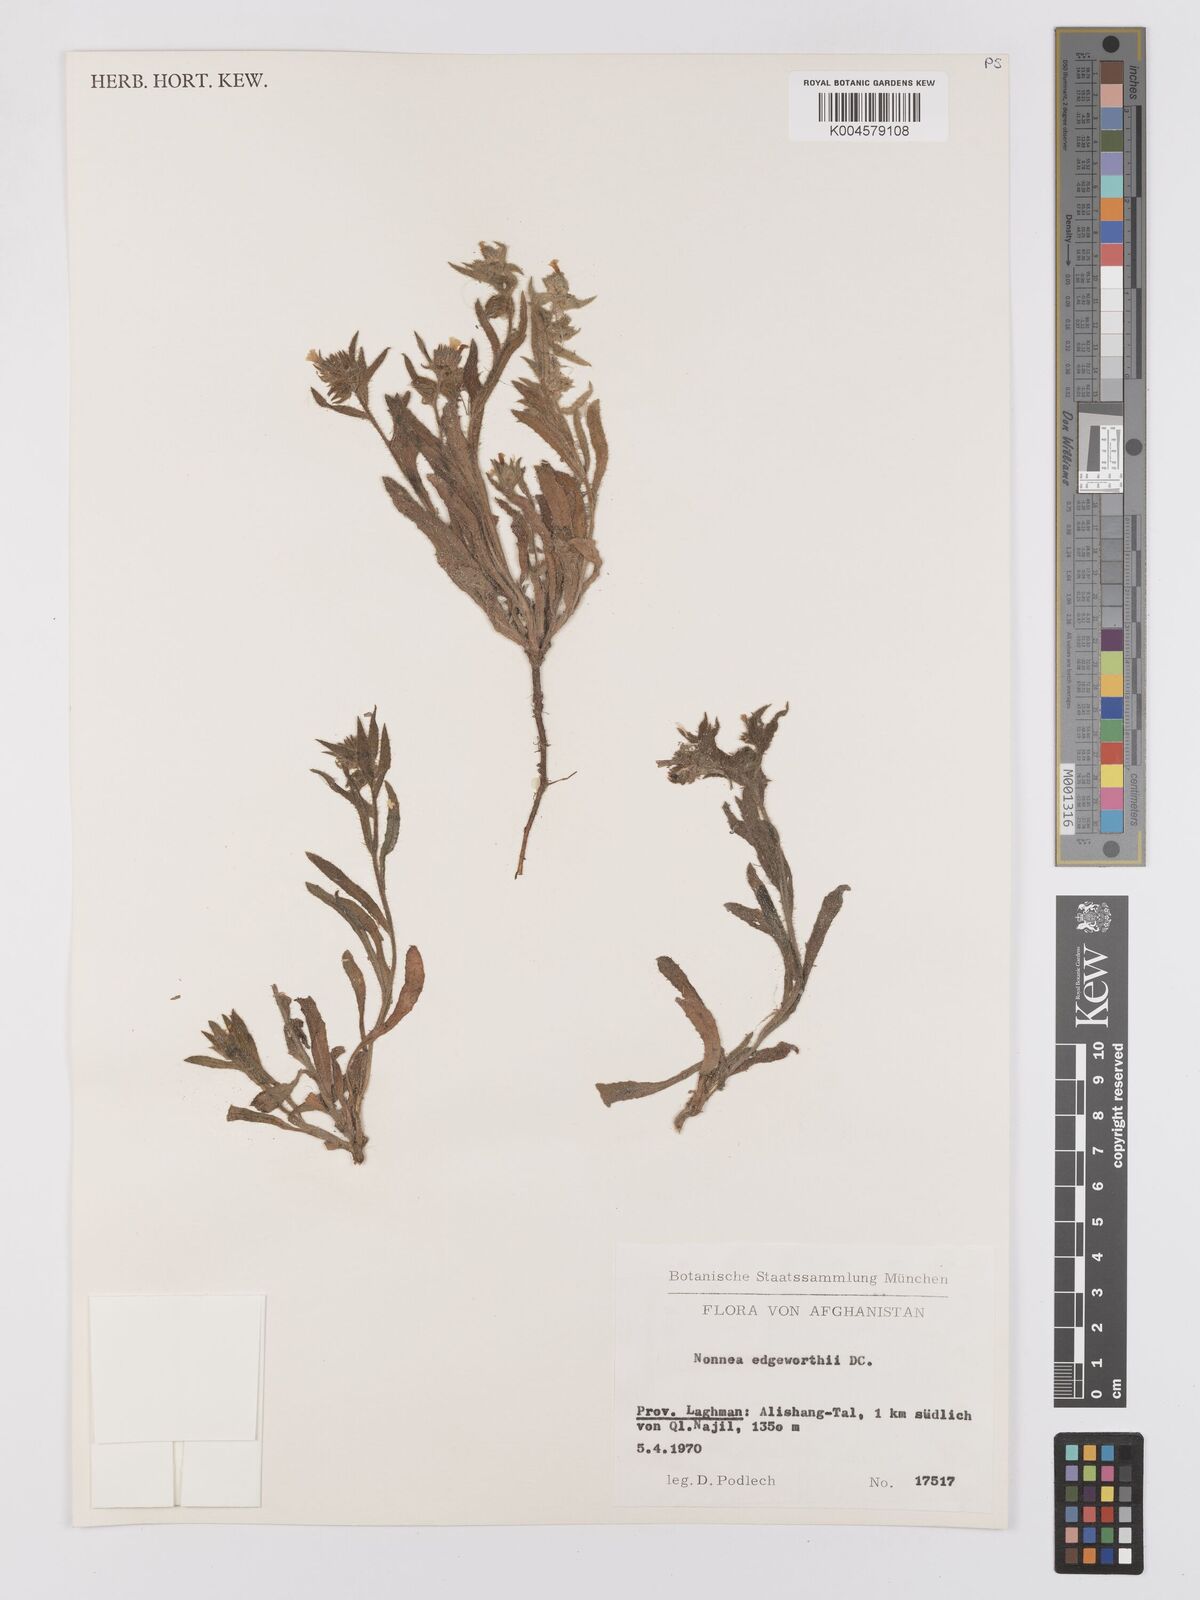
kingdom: Plantae
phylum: Tracheophyta
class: Magnoliopsida
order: Boraginales
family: Boraginaceae
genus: Nonea
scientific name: Nonea edgeworthii
